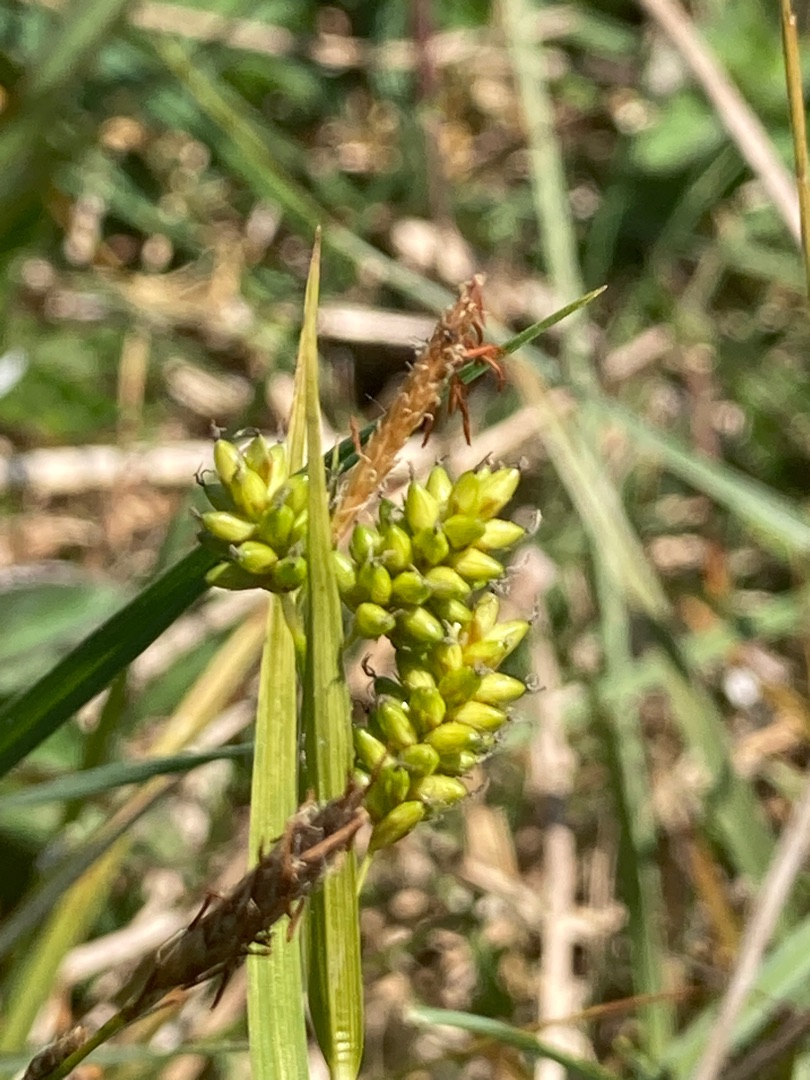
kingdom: Plantae
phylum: Tracheophyta
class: Liliopsida
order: Poales
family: Cyperaceae
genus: Carex
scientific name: Carex pallescens
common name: Bleg star
